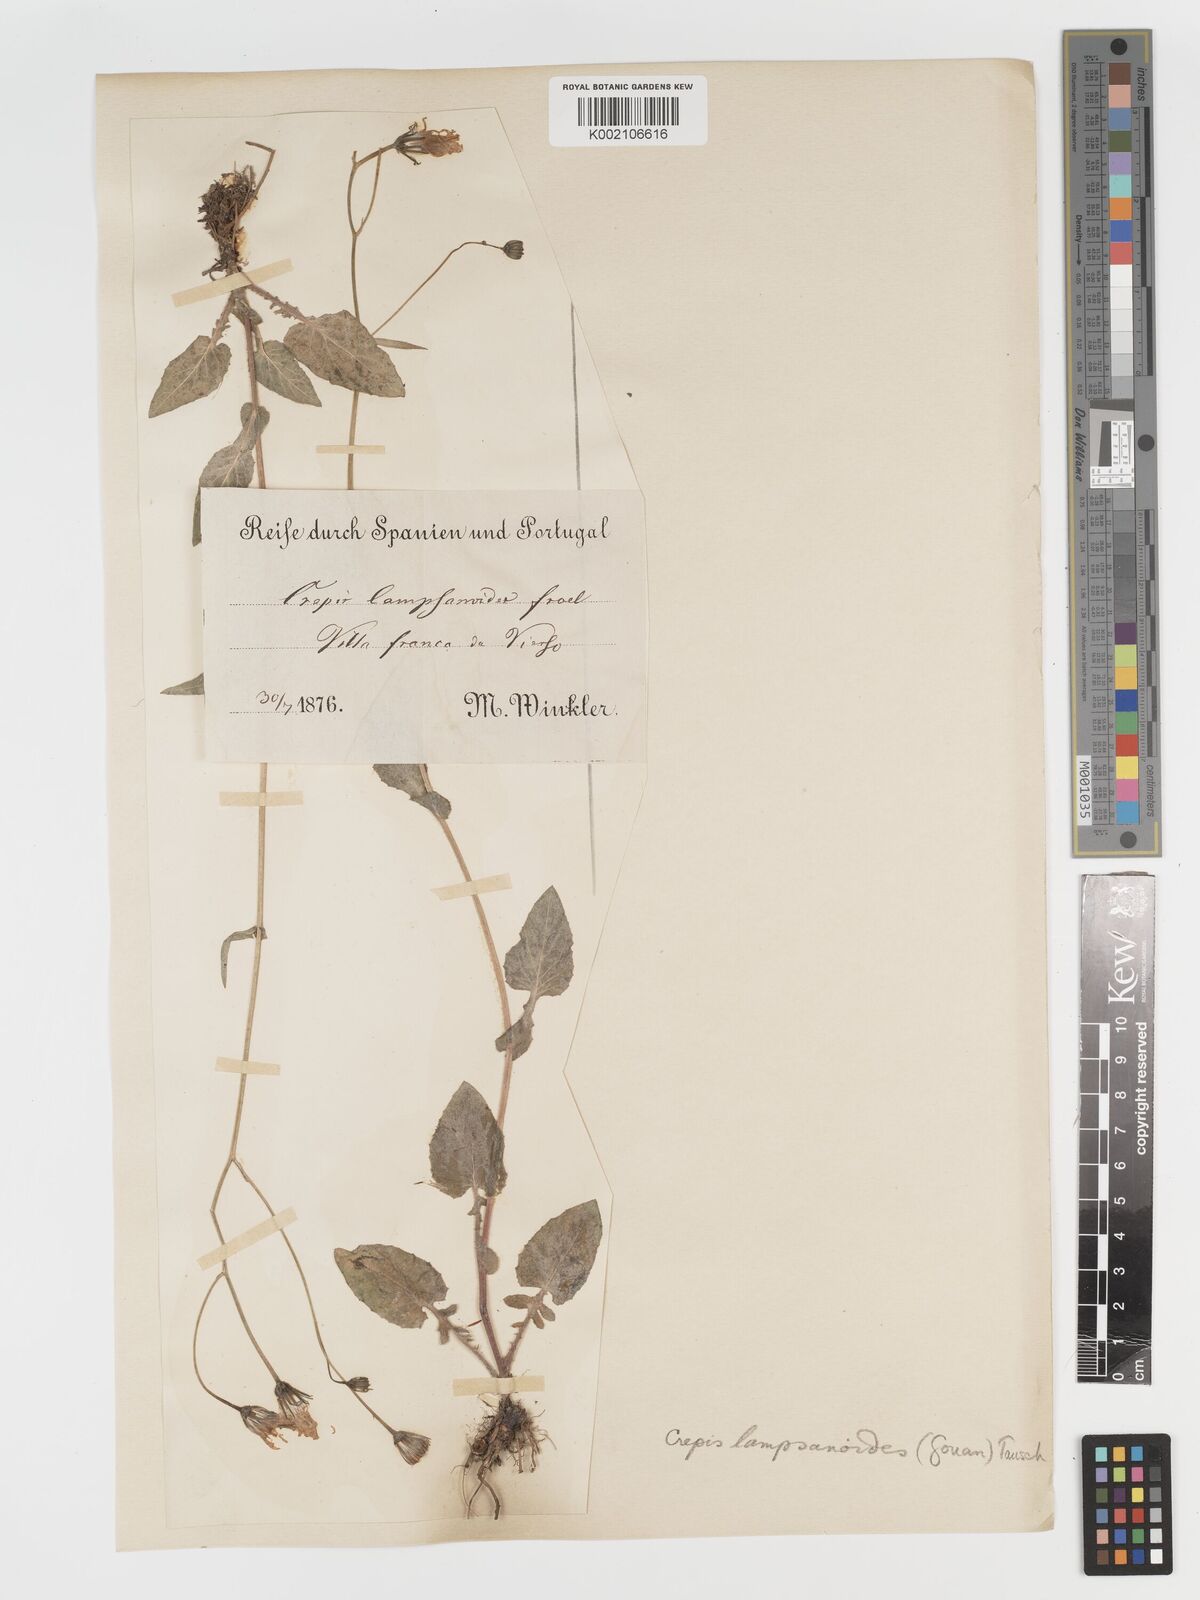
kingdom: Plantae
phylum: Tracheophyta
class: Magnoliopsida
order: Asterales
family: Asteraceae
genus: Crepis
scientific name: Crepis lampsanoides
